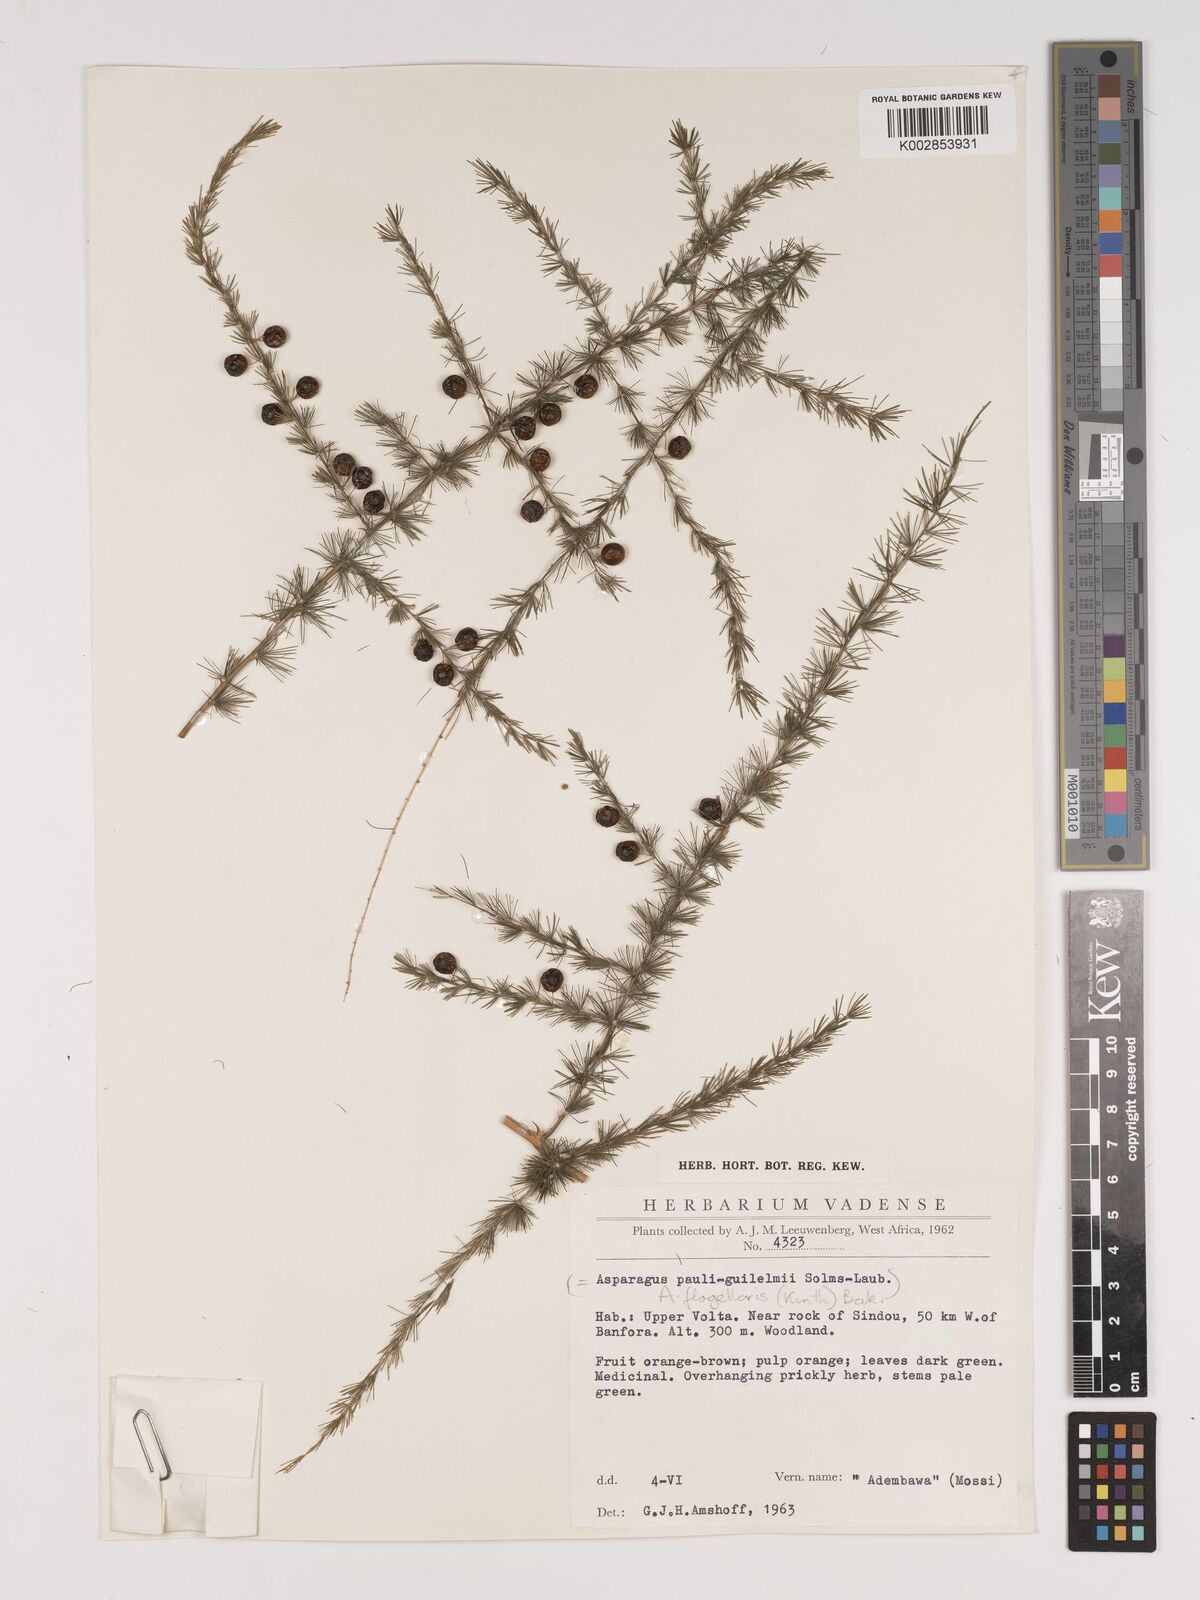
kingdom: Plantae
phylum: Tracheophyta
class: Liliopsida
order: Asparagales
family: Asparagaceae
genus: Asparagus
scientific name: Asparagus flagellaris
